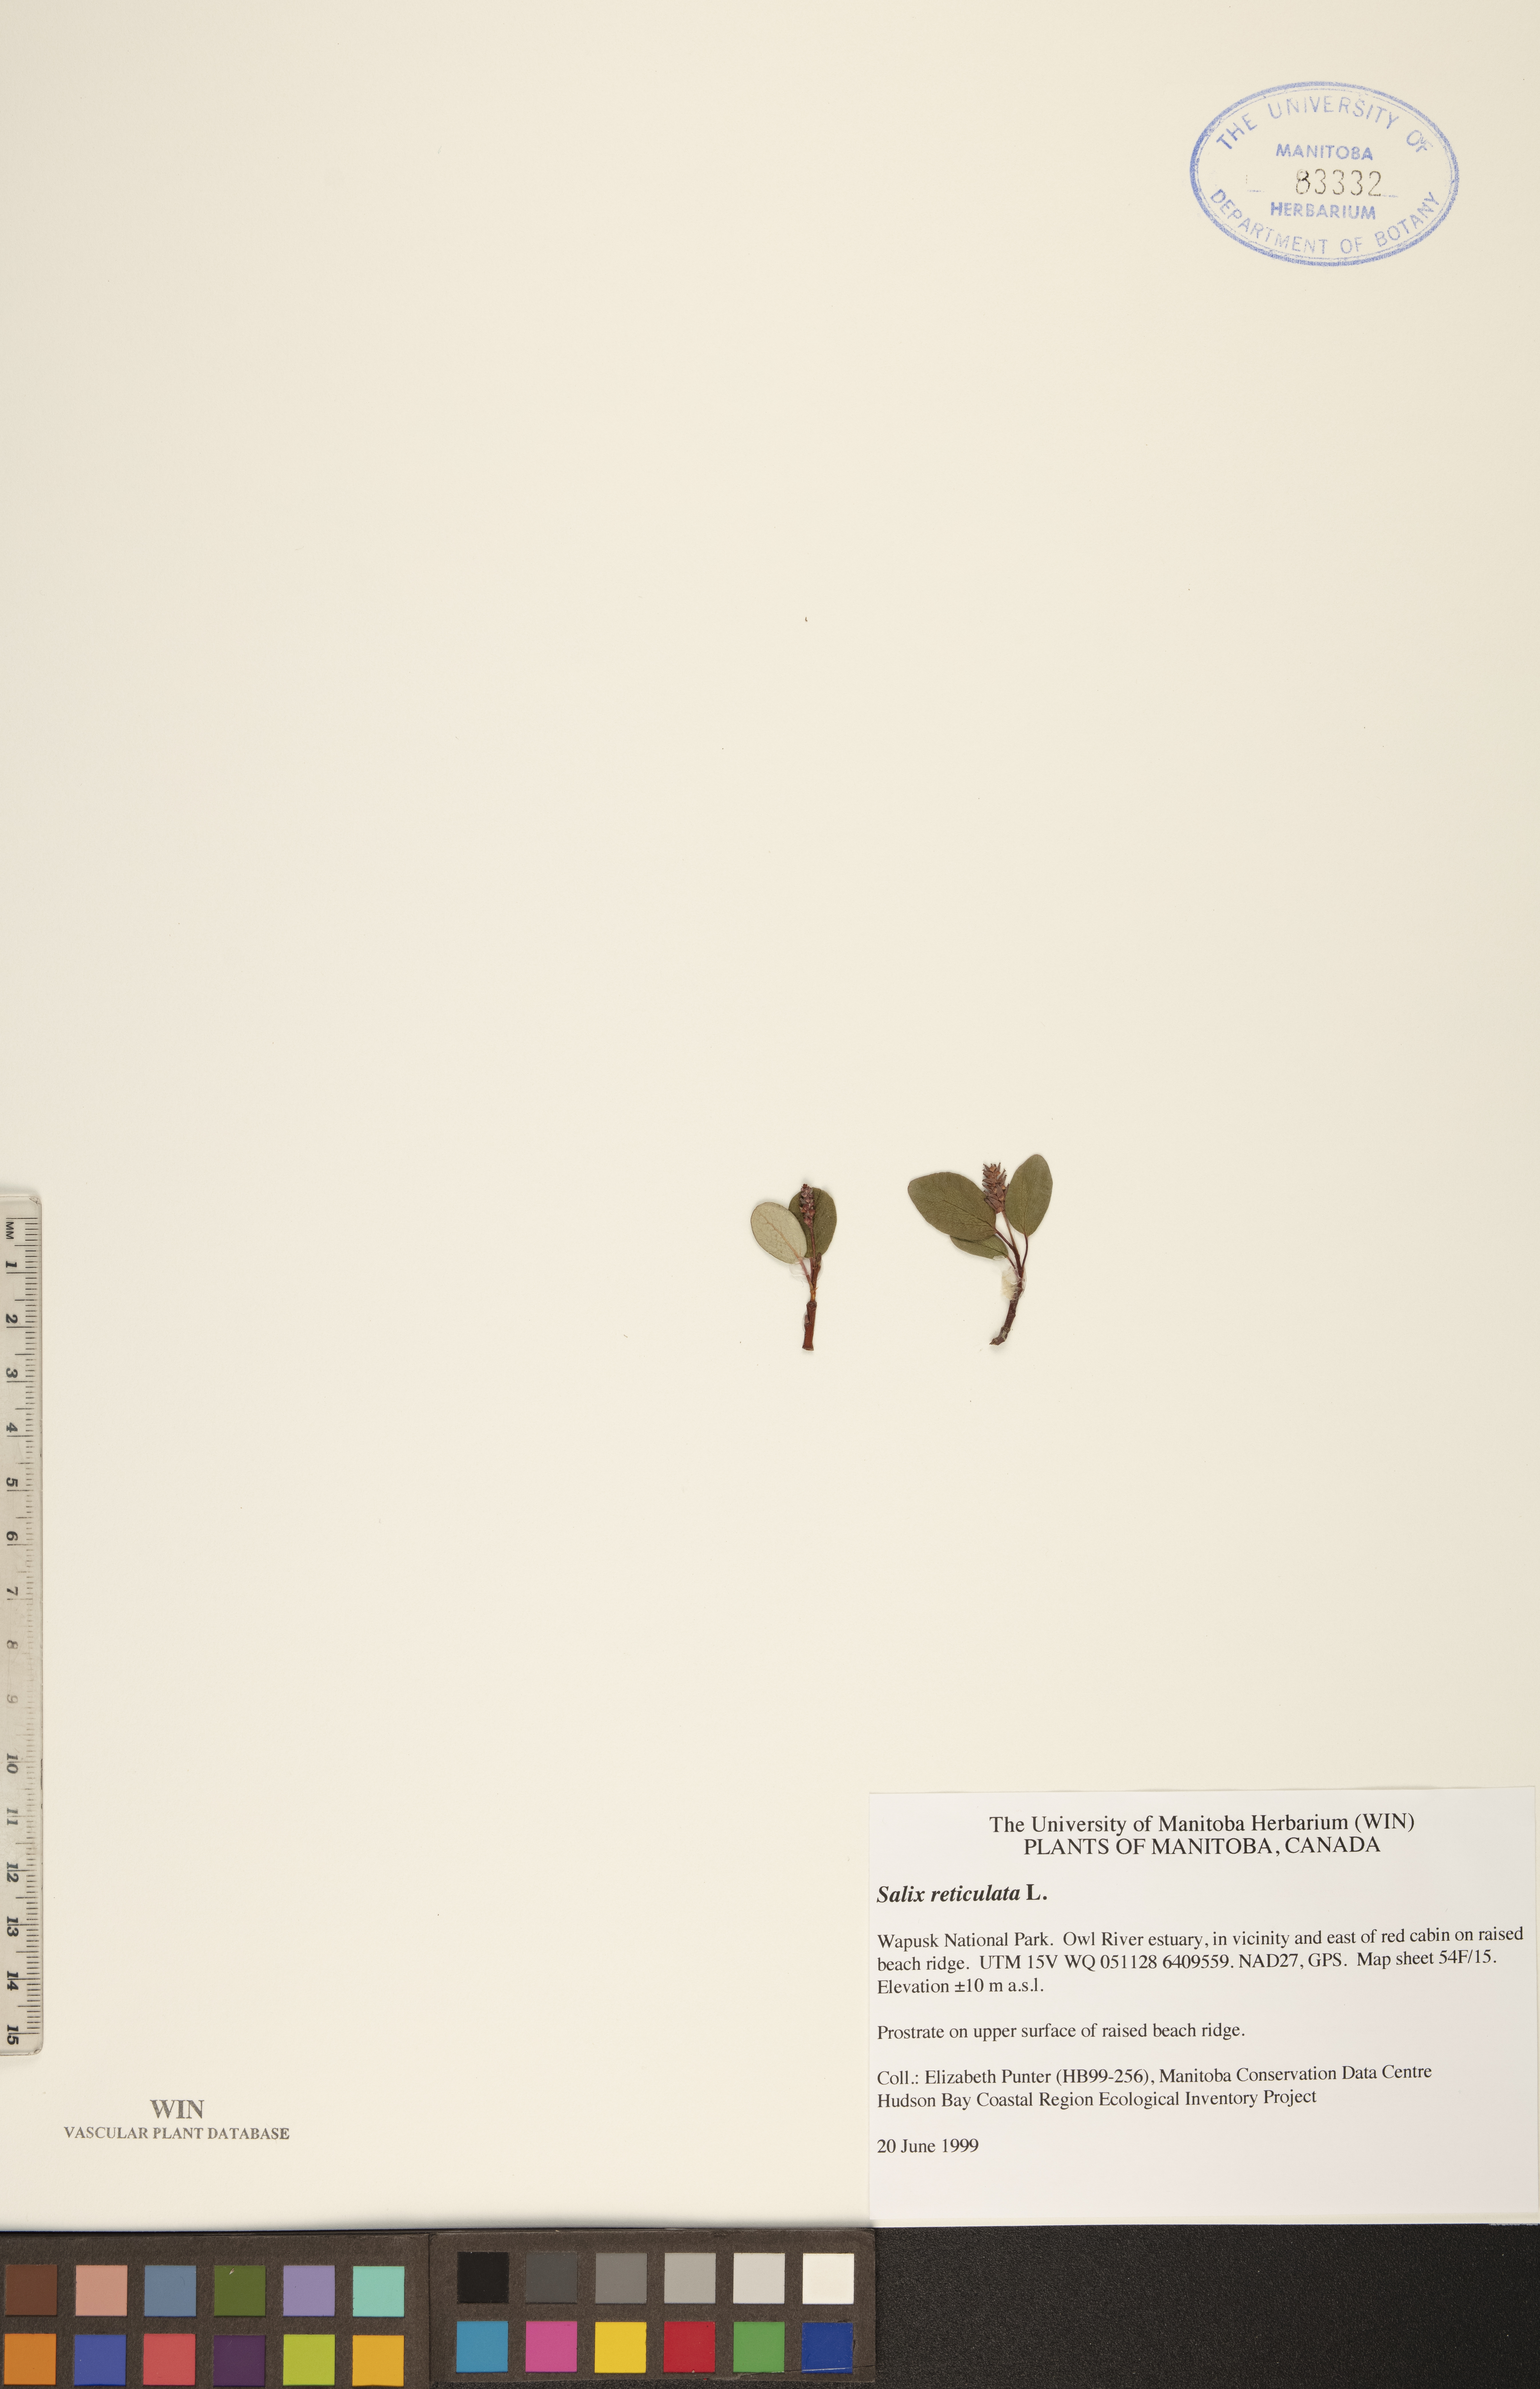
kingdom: Plantae
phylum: Tracheophyta
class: Magnoliopsida
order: Malpighiales
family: Salicaceae
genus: Salix
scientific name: Salix reticulata
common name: Net-leaved willow
